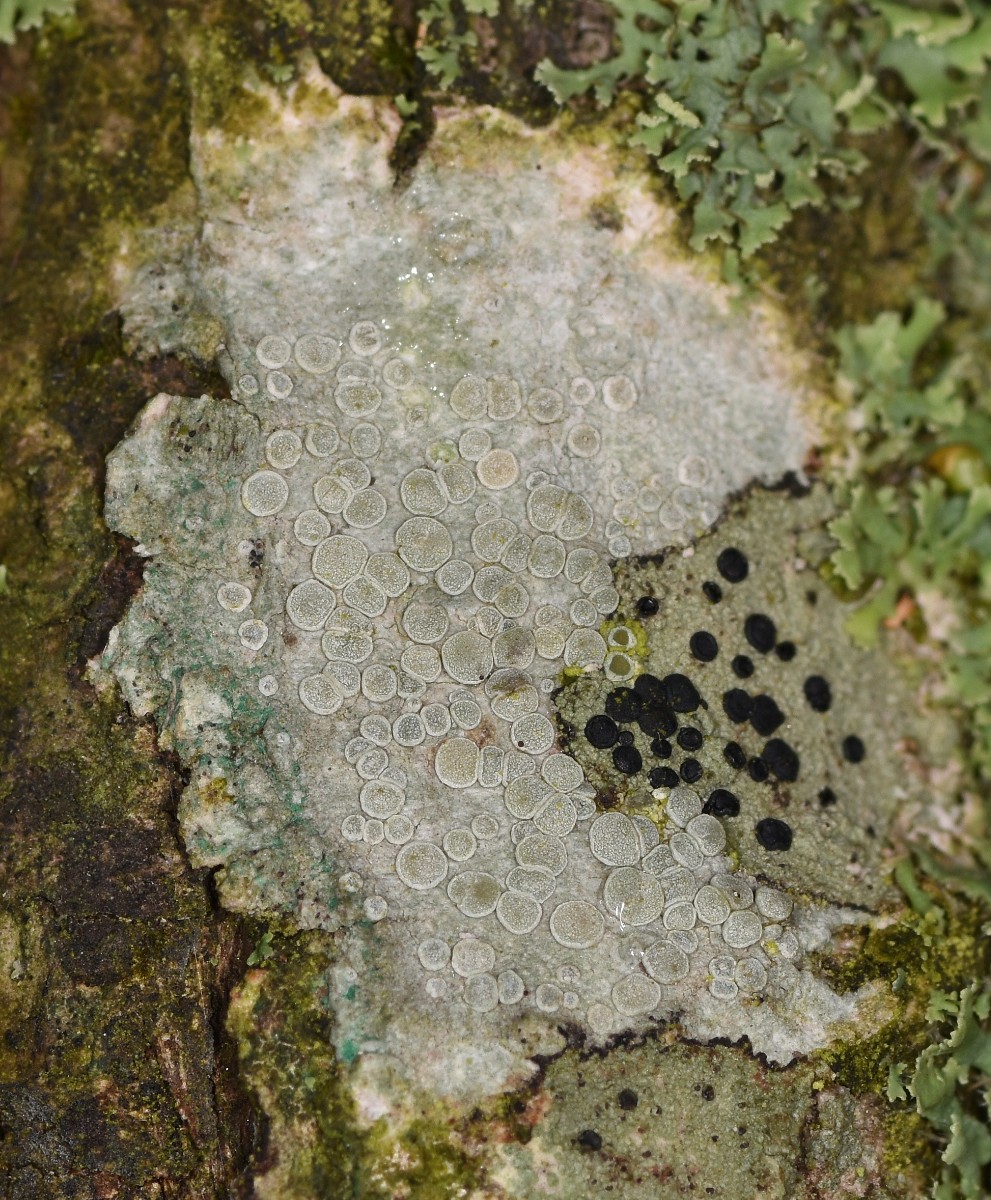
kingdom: Fungi
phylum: Ascomycota
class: Lecanoromycetes
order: Lecanorales
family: Lecanoraceae
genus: Glaucomaria
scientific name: Glaucomaria carpinea
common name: hviddugget kantskivelav
